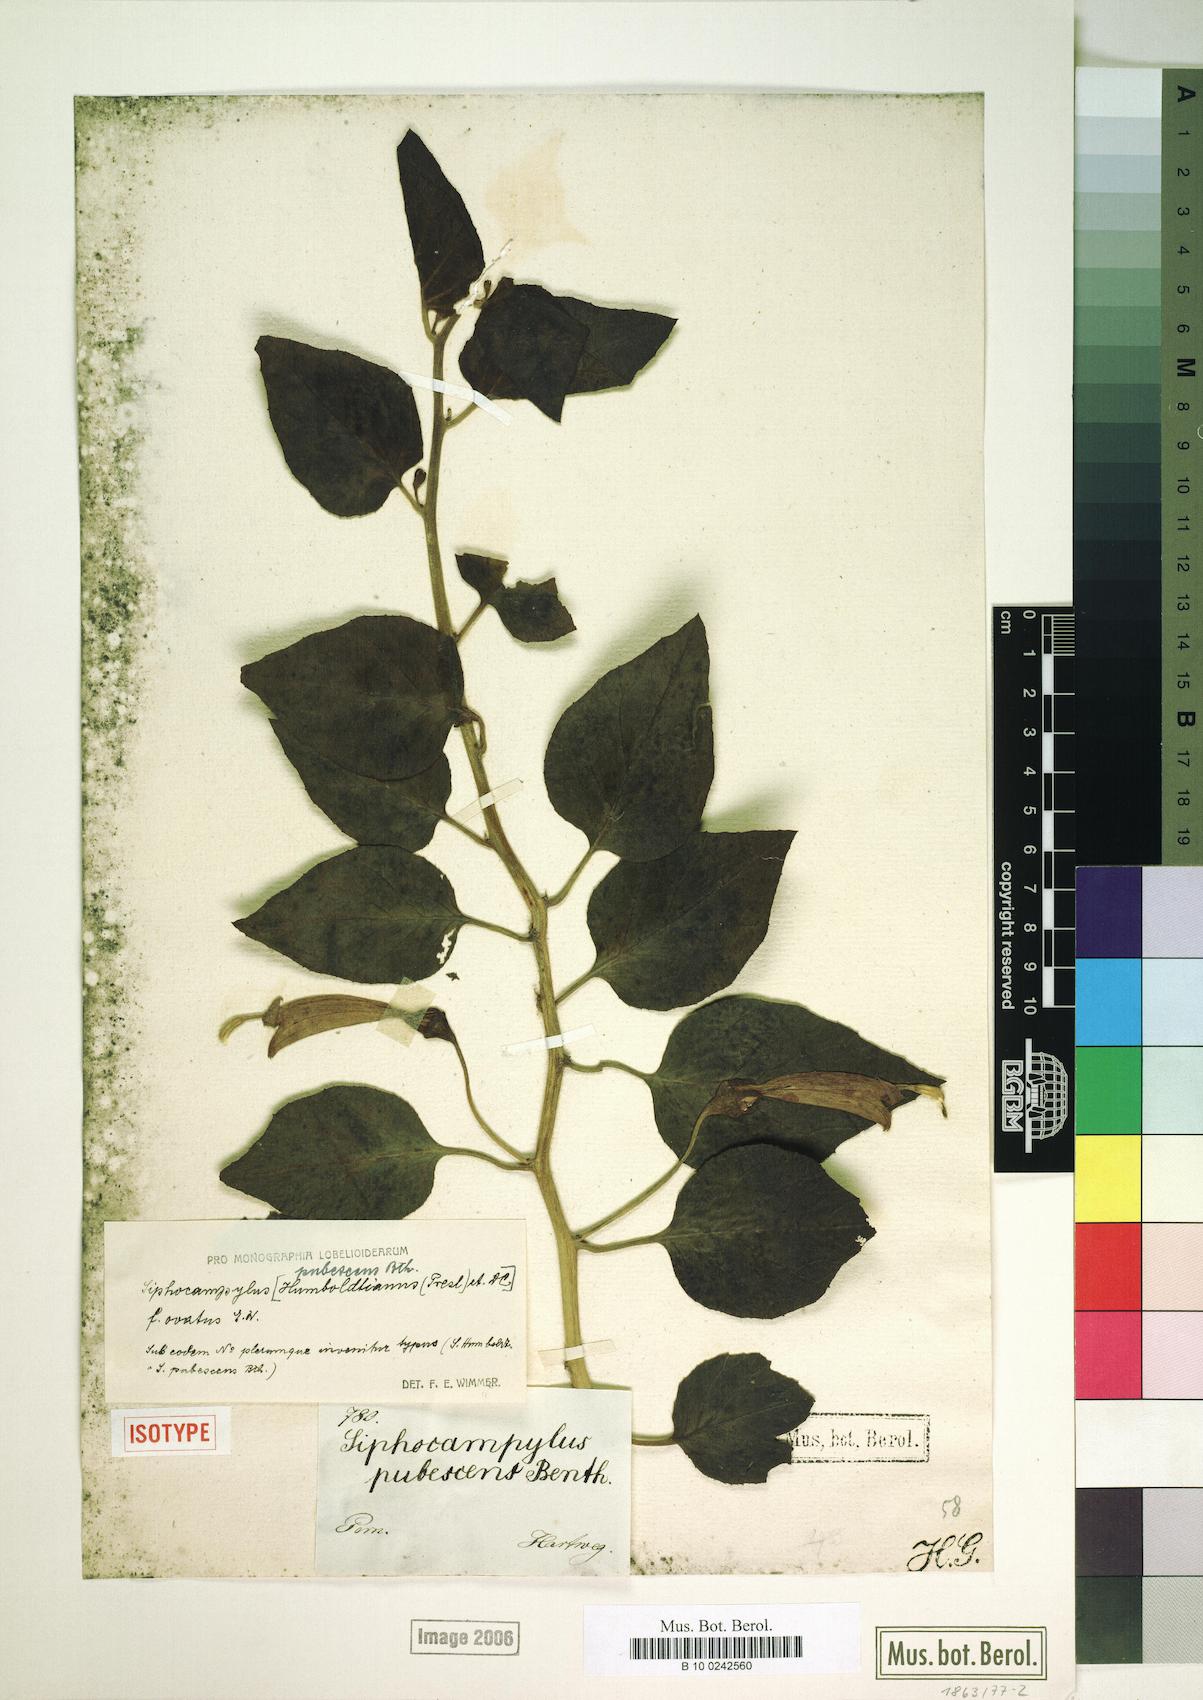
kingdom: Plantae
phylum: Tracheophyta
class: Magnoliopsida
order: Asterales
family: Campanulaceae
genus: Siphocampylus
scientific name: Siphocampylus humboldtianus
